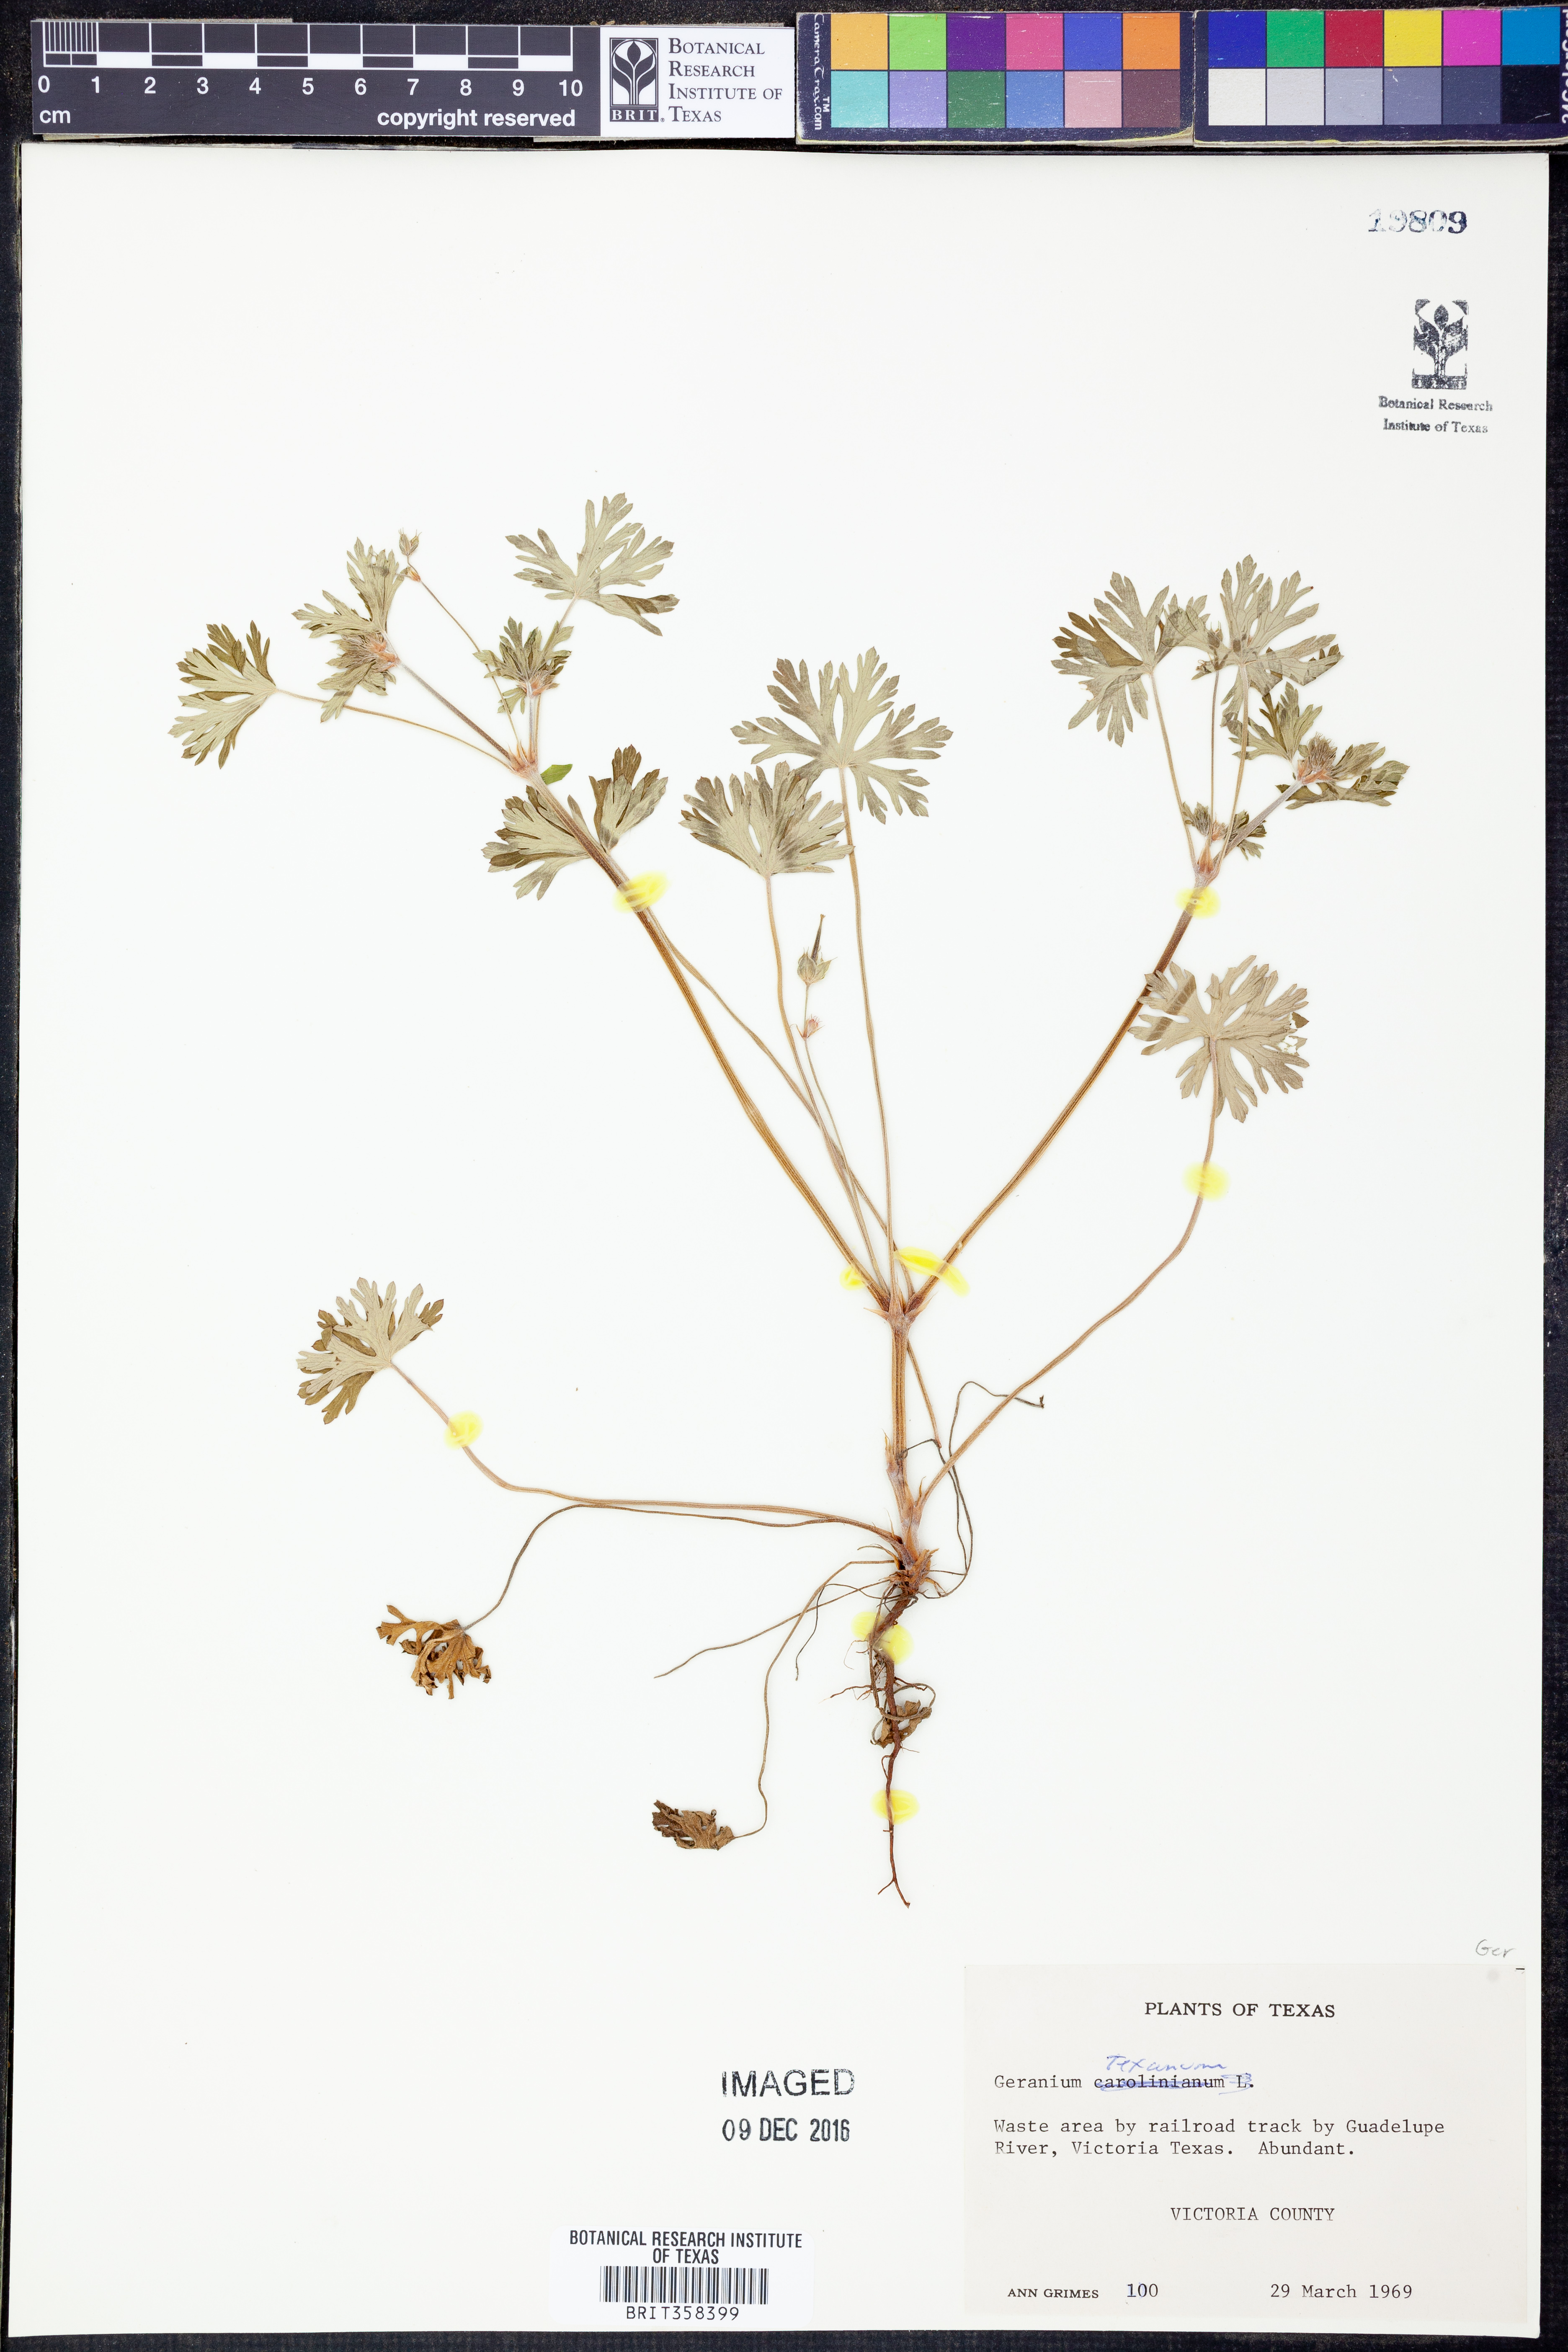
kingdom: Plantae
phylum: Tracheophyta
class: Magnoliopsida
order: Geraniales
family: Geraniaceae
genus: Geranium
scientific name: Geranium texanum
